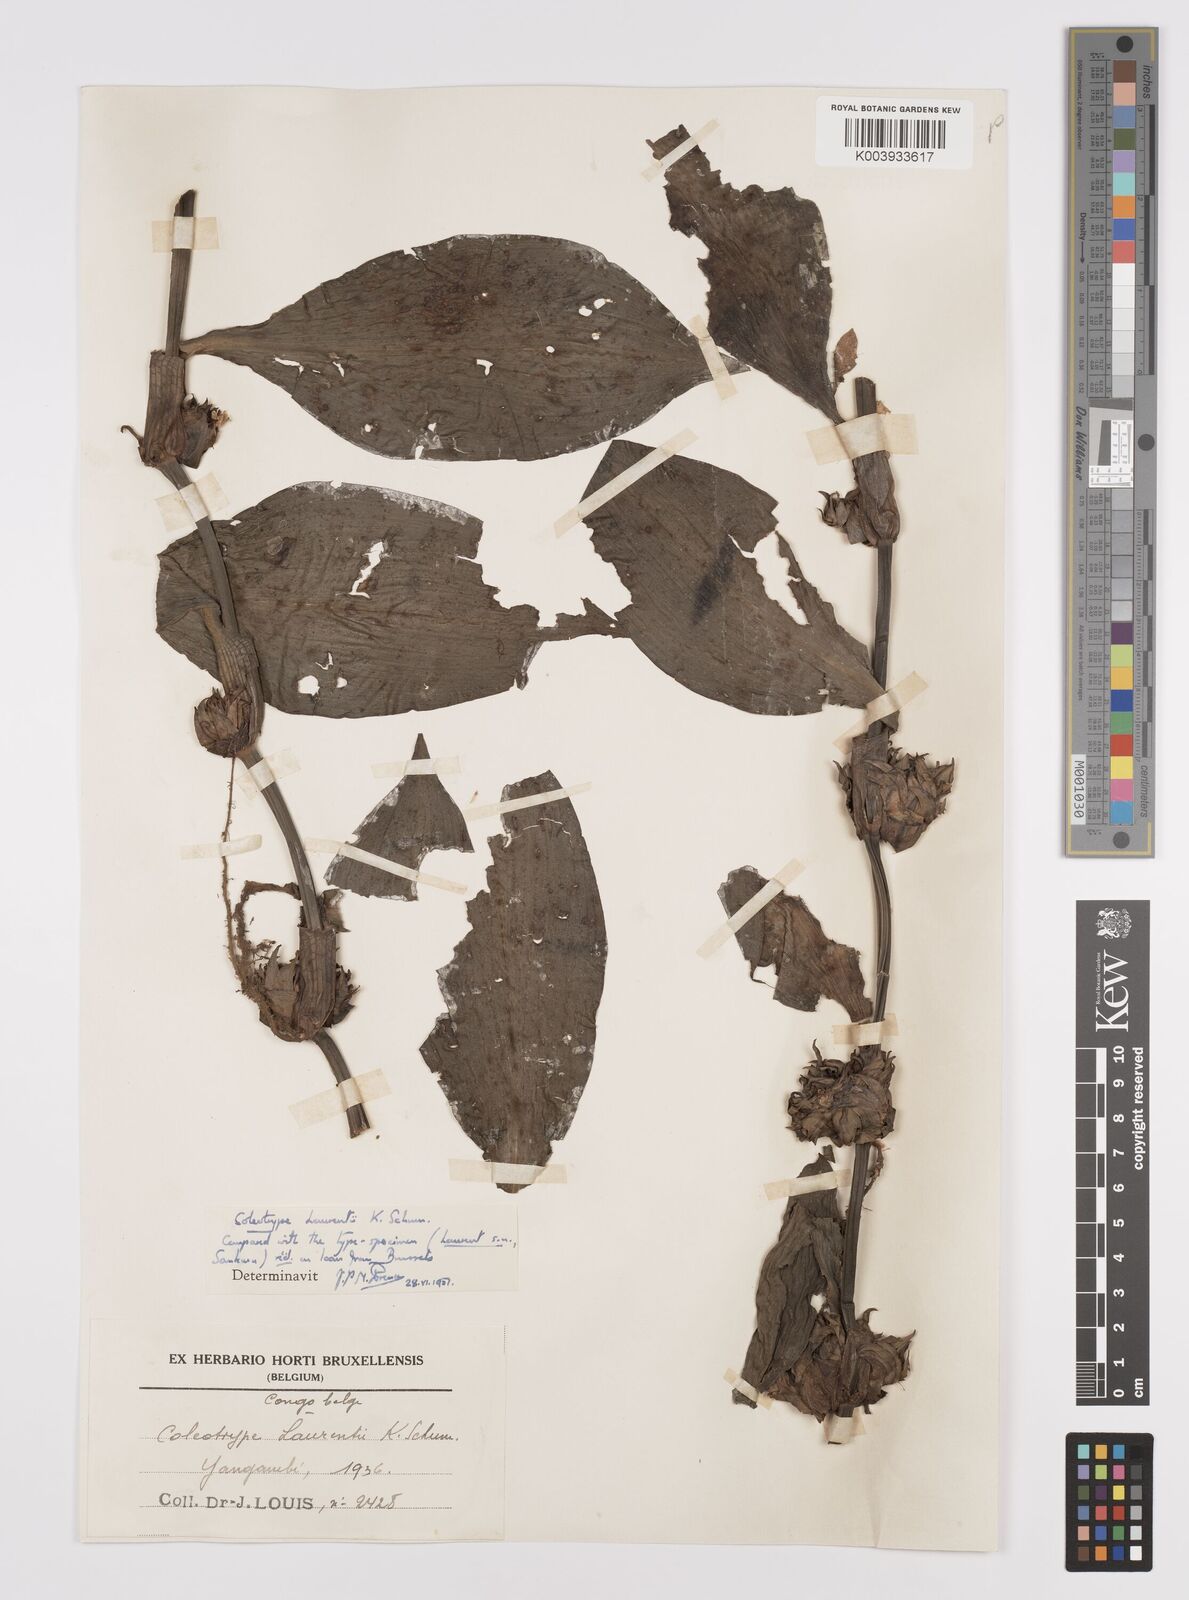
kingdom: Plantae
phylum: Tracheophyta
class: Liliopsida
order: Commelinales
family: Commelinaceae
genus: Coleotrype
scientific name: Coleotrype laurentii
